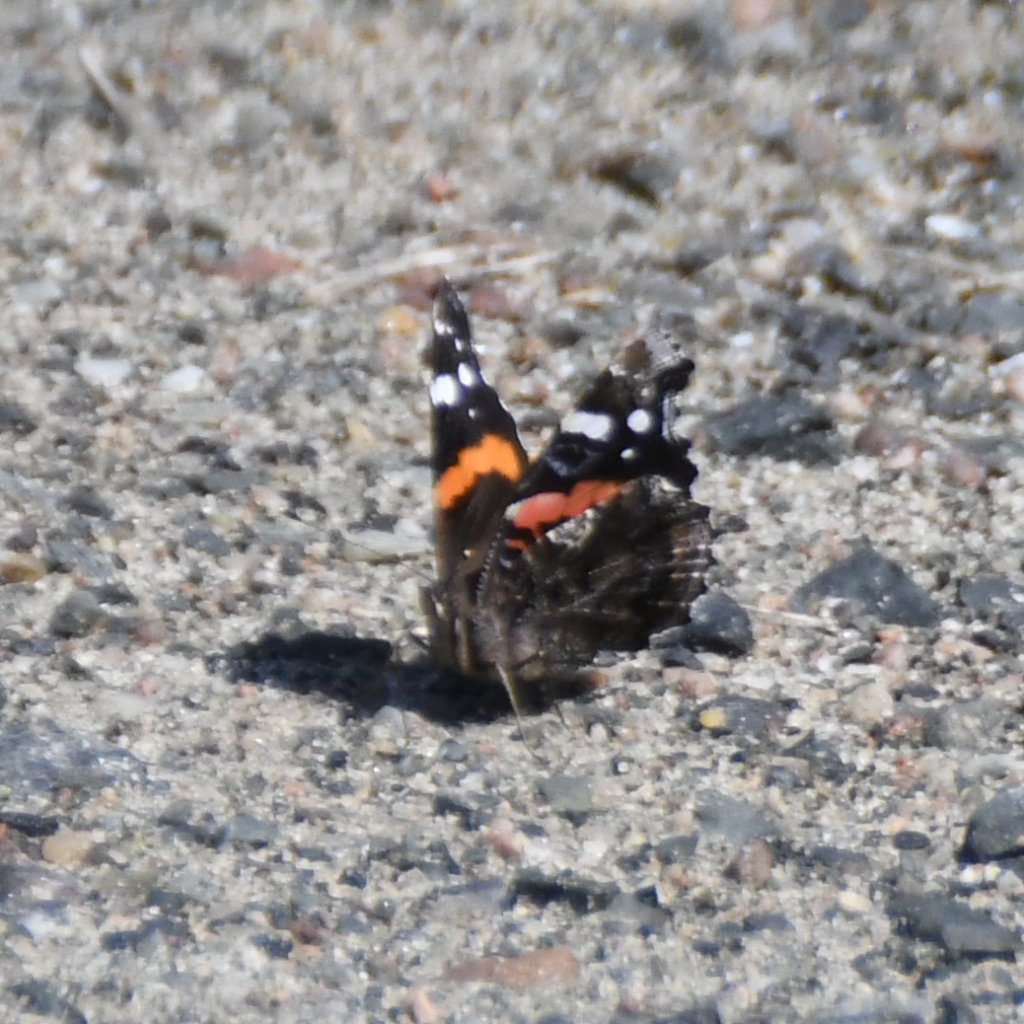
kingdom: Animalia
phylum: Arthropoda
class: Insecta
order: Lepidoptera
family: Nymphalidae
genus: Vanessa
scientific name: Vanessa atalanta
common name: Red Admiral
